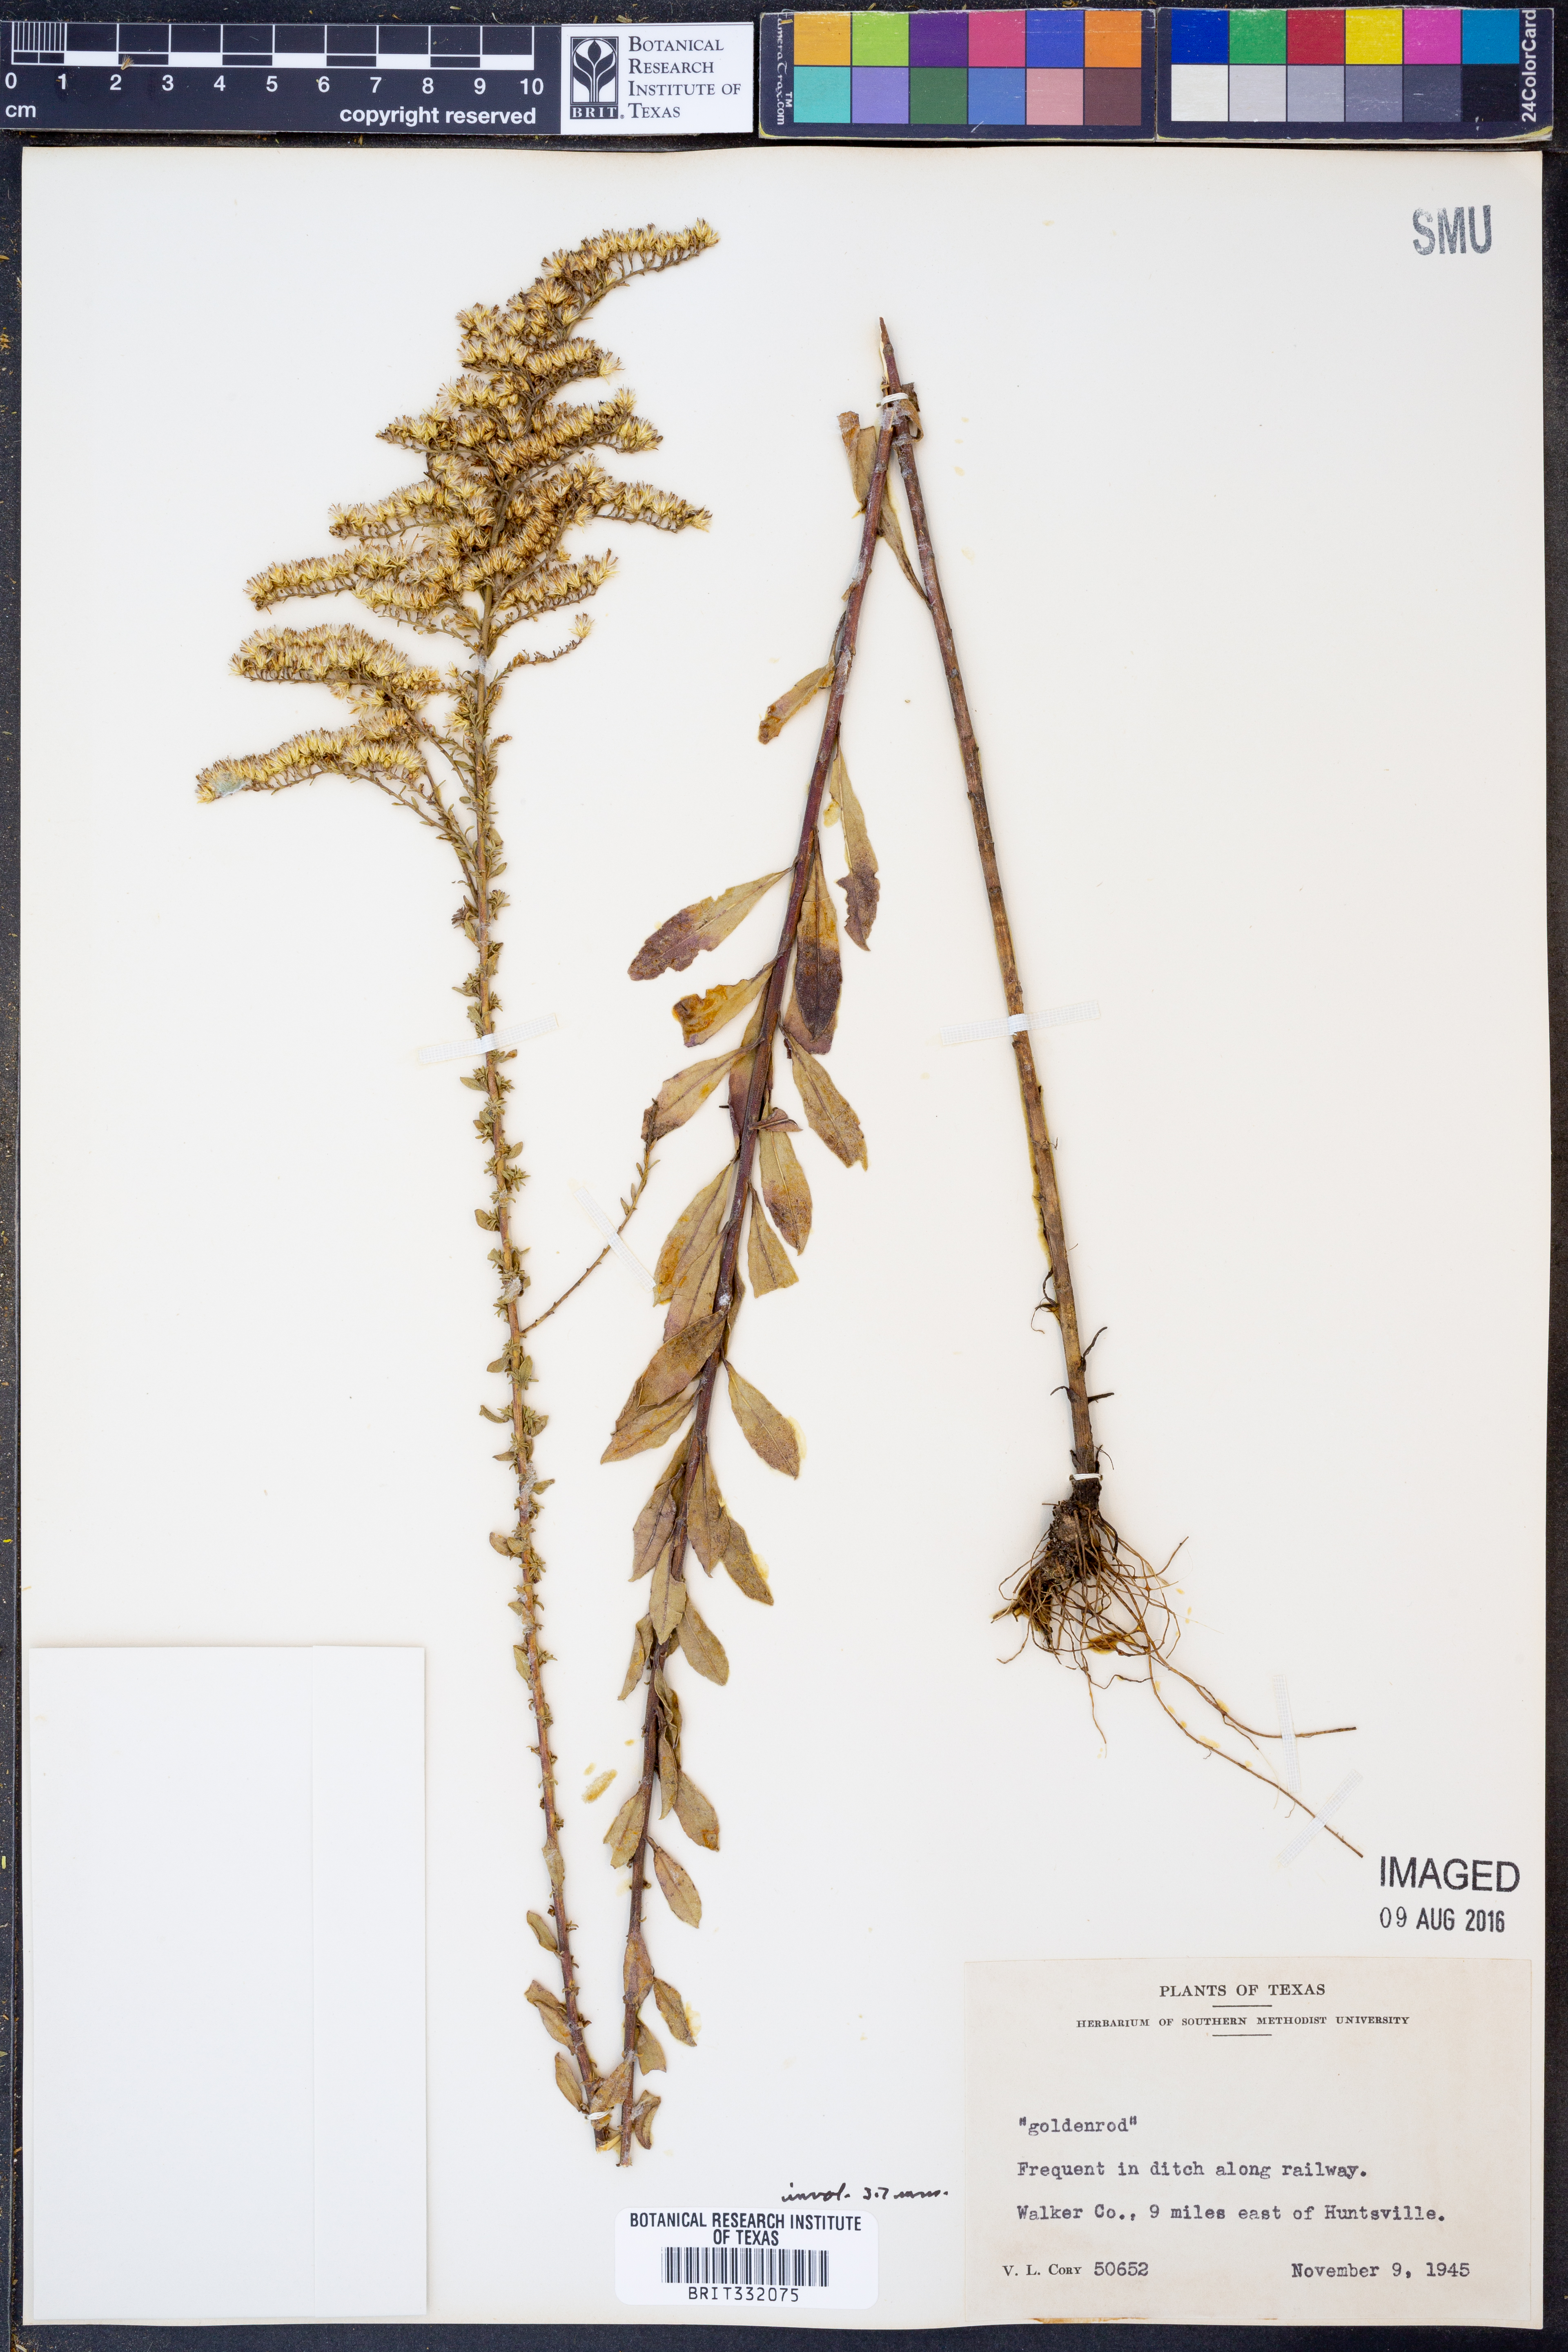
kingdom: Plantae
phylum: Tracheophyta
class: Magnoliopsida
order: Asterales
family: Asteraceae
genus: Solidago
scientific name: Solidago
